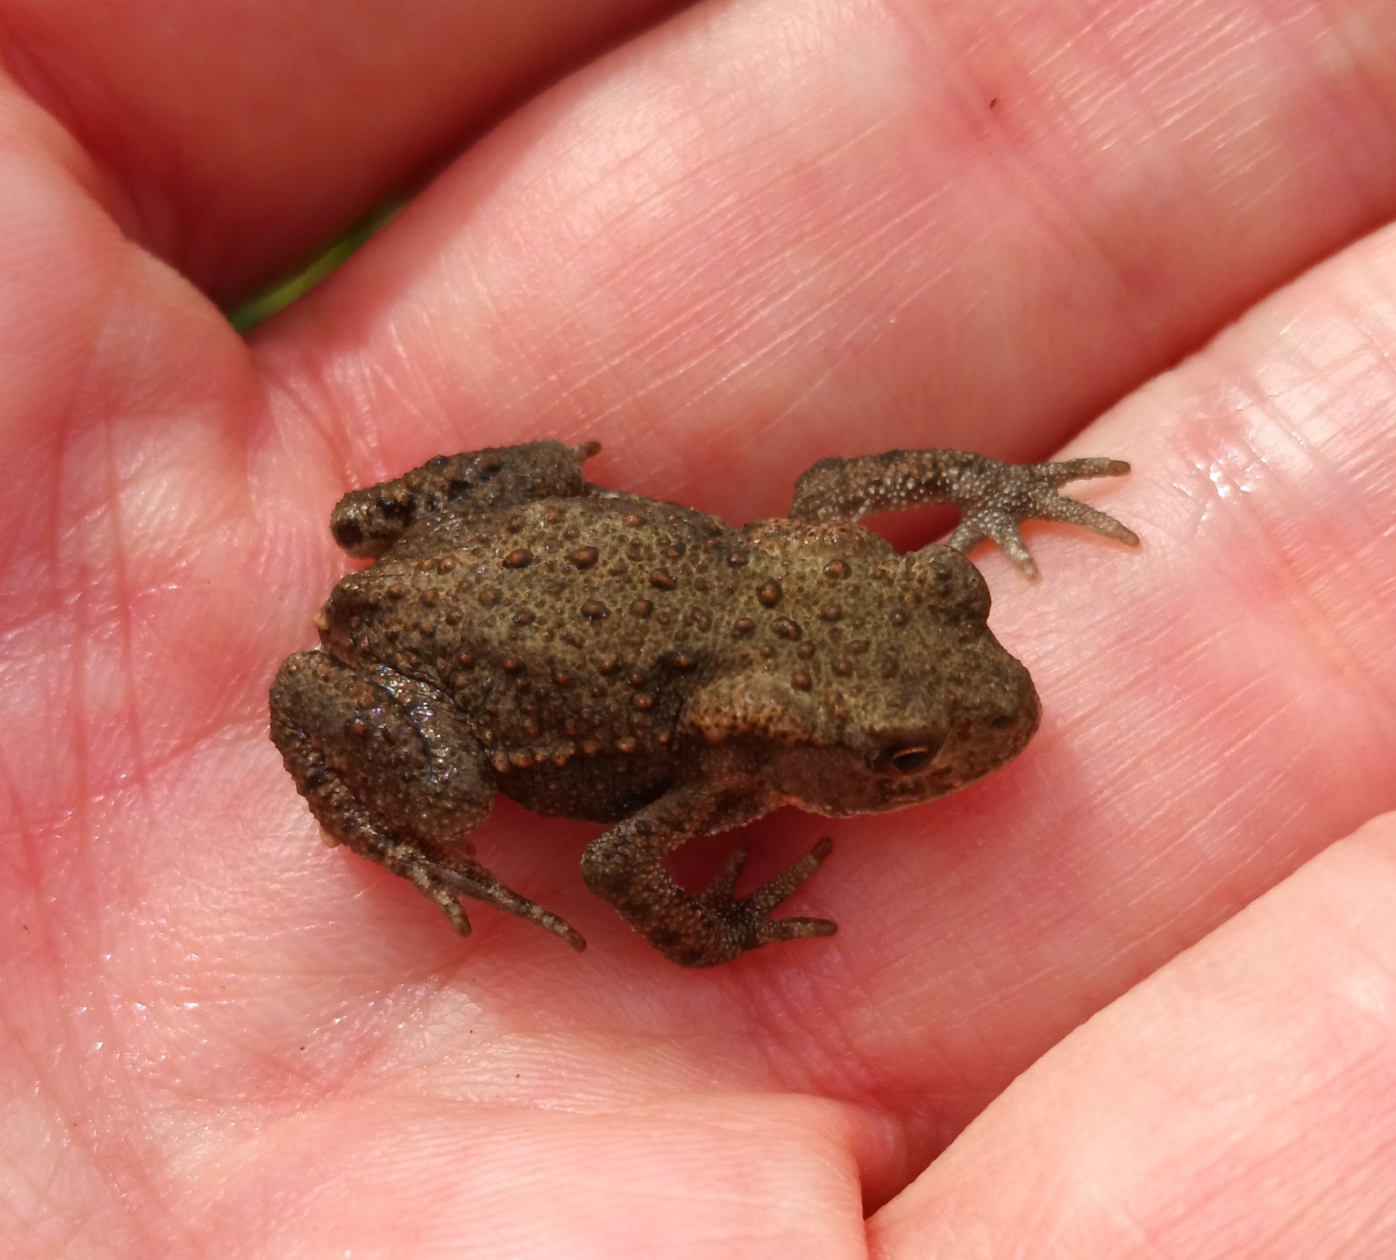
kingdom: Animalia
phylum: Chordata
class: Amphibia
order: Anura
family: Bufonidae
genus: Bufo
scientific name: Bufo bufo
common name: Skrubtudse
